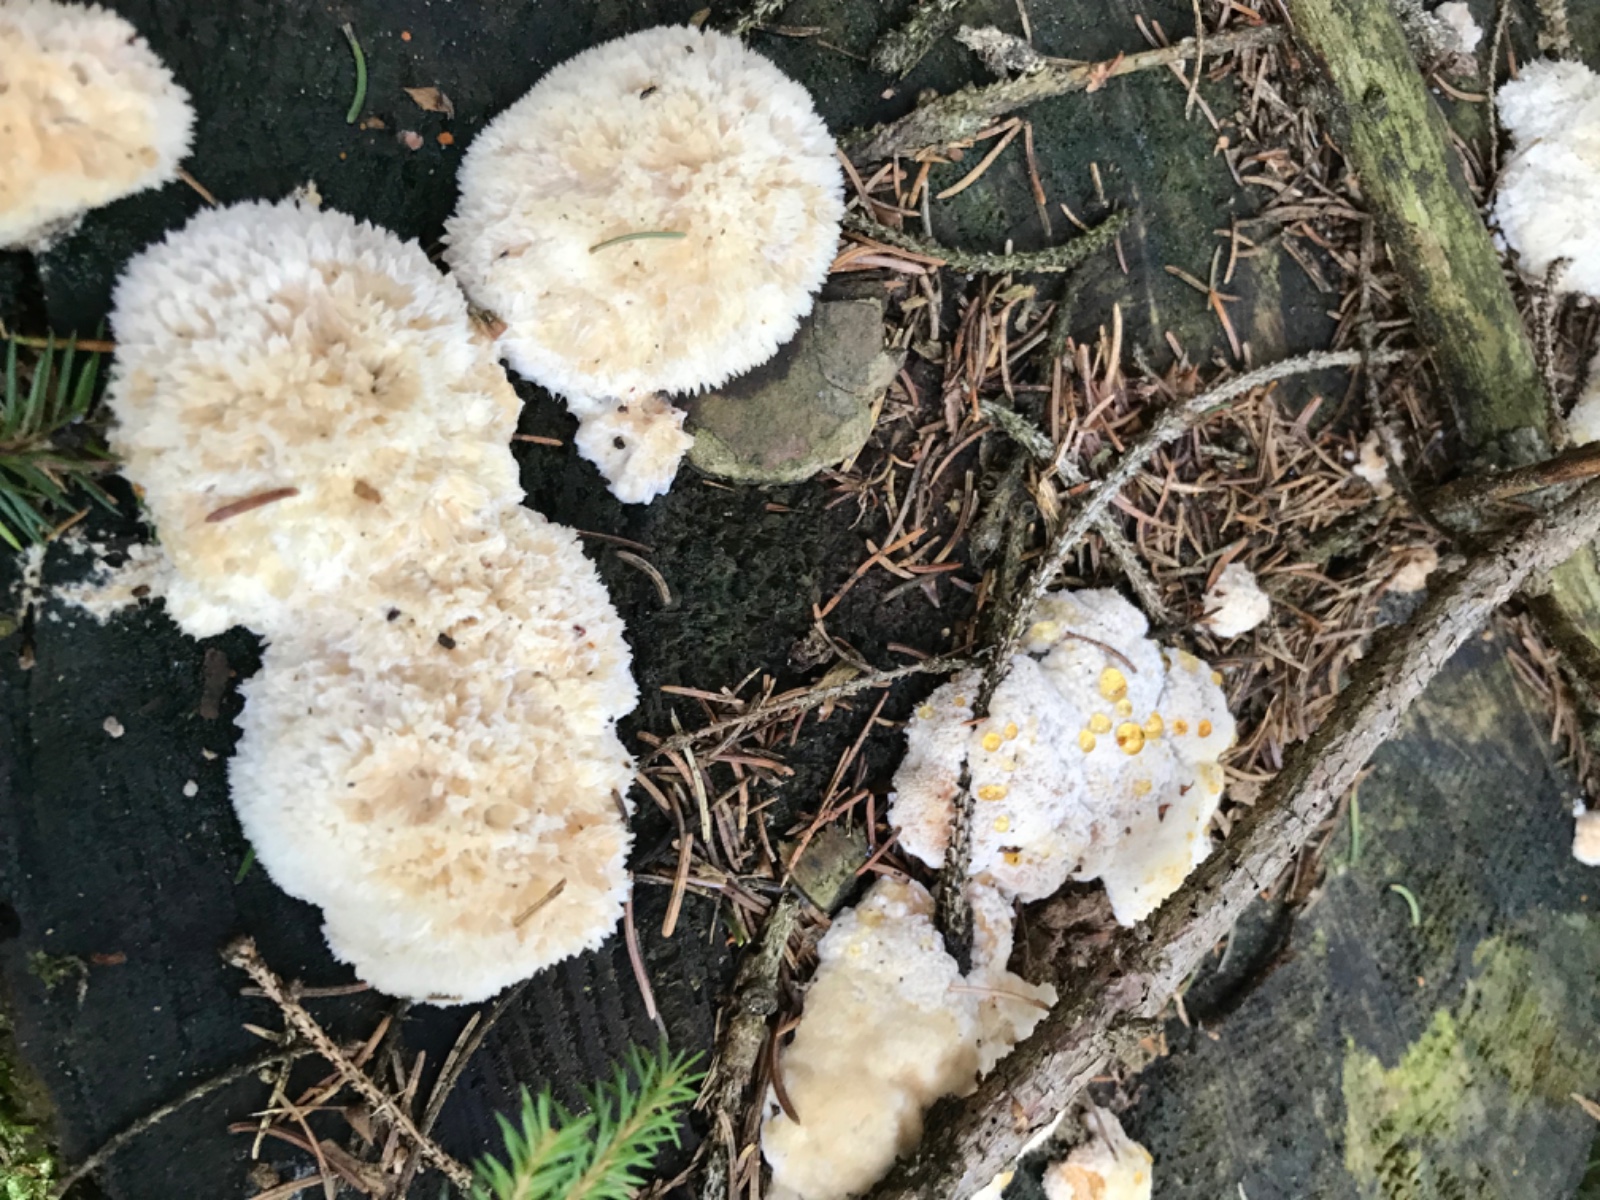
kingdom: Fungi
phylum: Basidiomycota
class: Agaricomycetes
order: Polyporales
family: Dacryobolaceae
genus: Postia
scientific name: Postia ptychogaster
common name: støvende kødporesvamp
